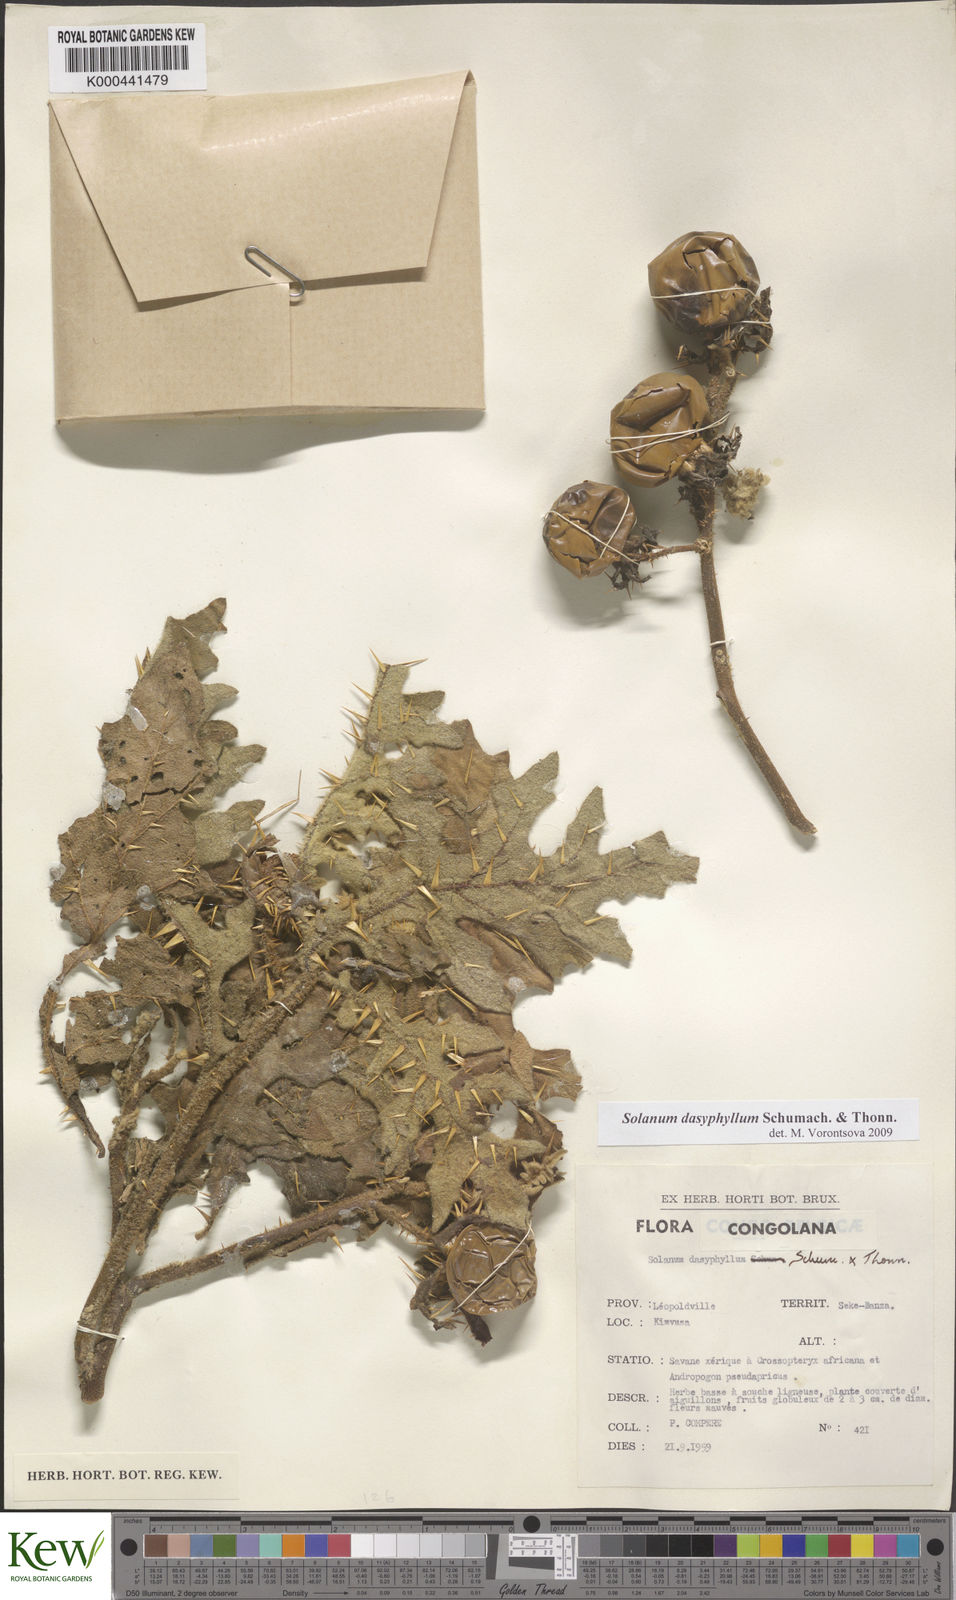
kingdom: Plantae
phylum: Tracheophyta
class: Magnoliopsida
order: Solanales
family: Solanaceae
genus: Solanum
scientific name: Solanum dasyphyllum
